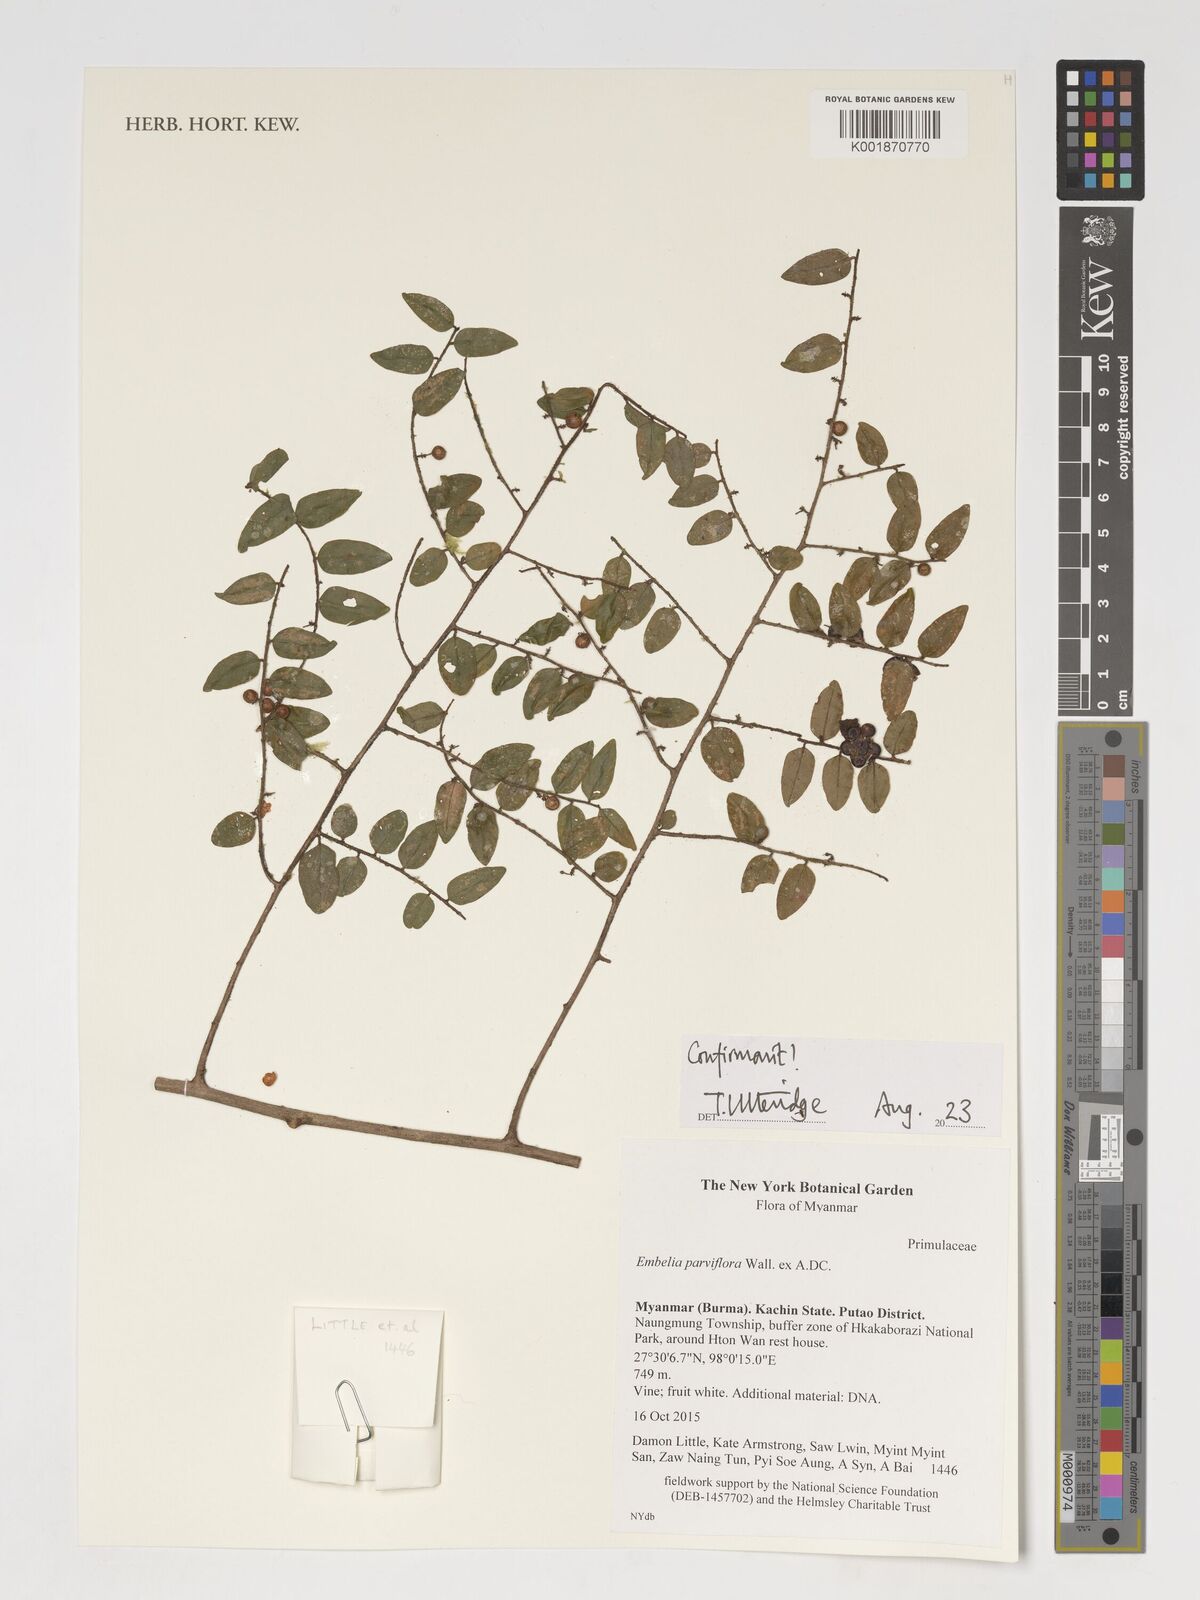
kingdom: Plantae
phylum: Tracheophyta
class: Magnoliopsida
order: Ericales
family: Primulaceae
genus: Embelia
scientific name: Embelia parviflora
